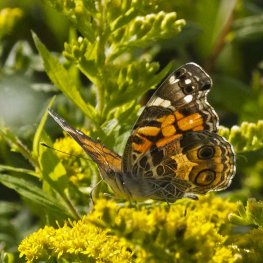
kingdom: Animalia
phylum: Arthropoda
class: Insecta
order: Lepidoptera
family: Nymphalidae
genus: Vanessa
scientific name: Vanessa virginiensis
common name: American Lady
